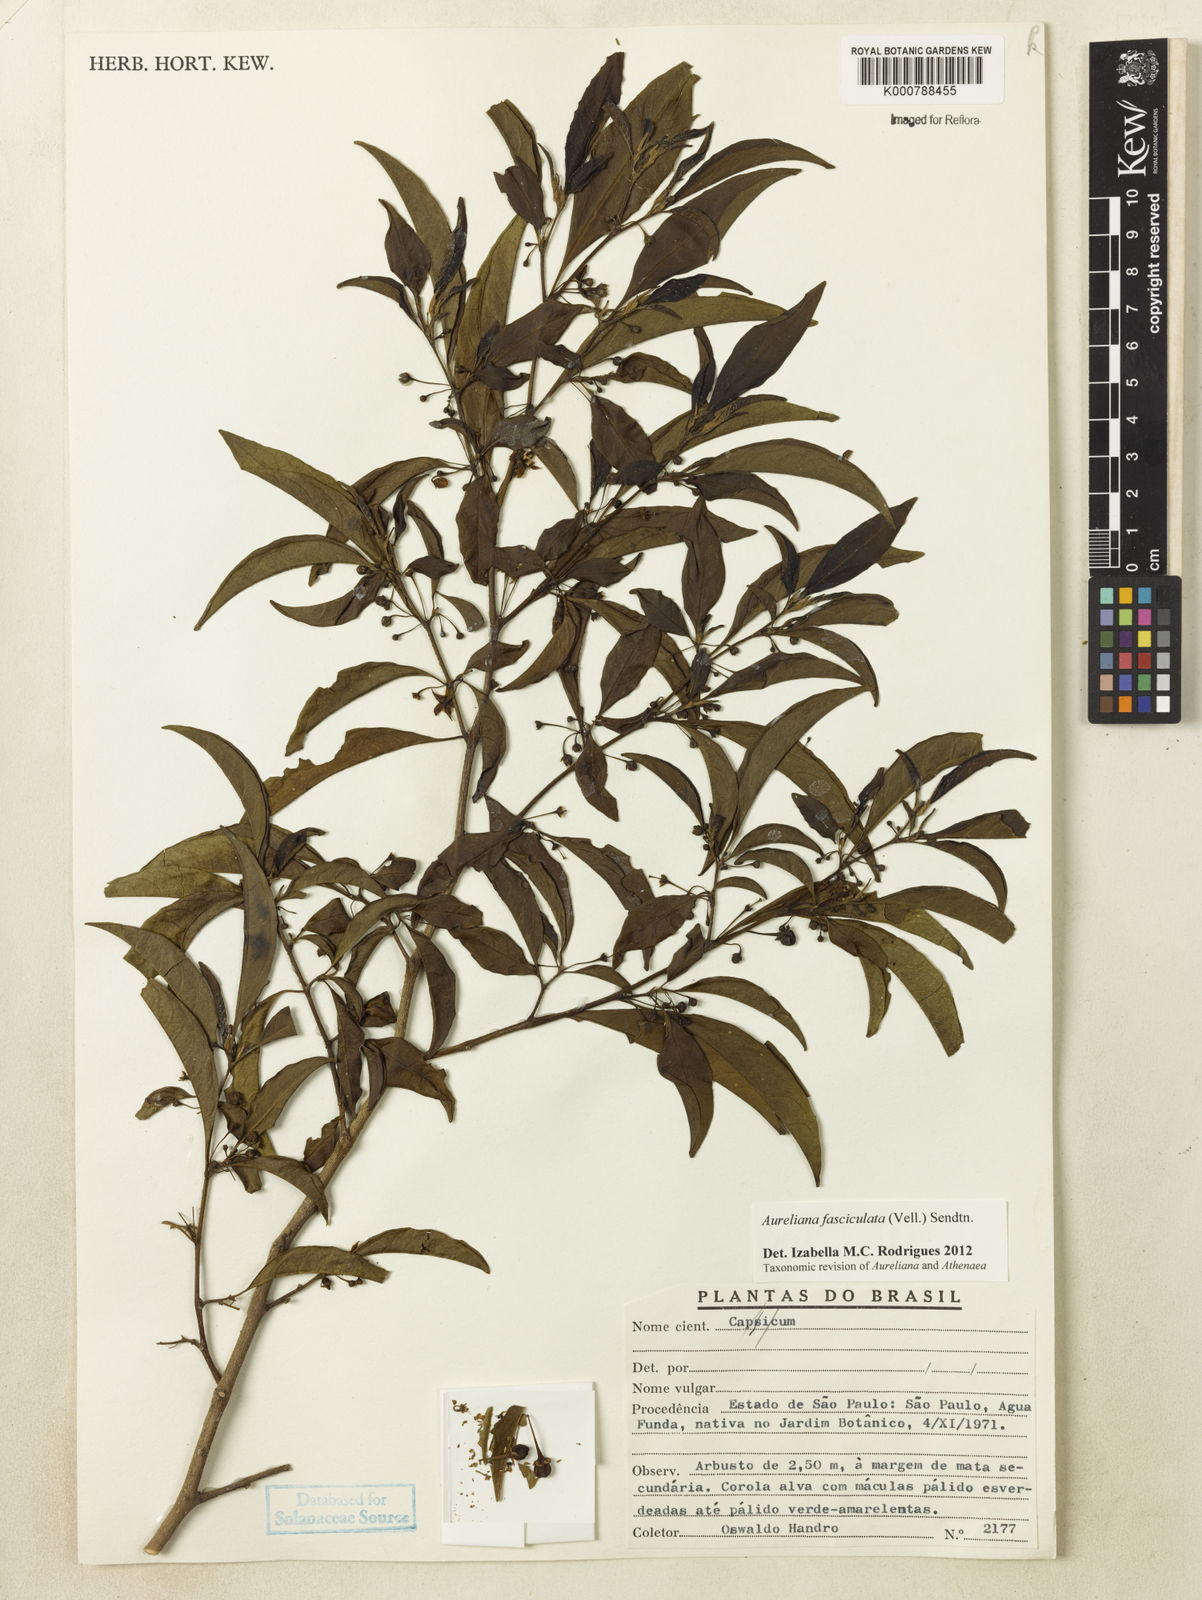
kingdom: Plantae
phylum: Tracheophyta
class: Magnoliopsida
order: Solanales
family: Solanaceae
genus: Athenaea
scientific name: Athenaea fasciculata
